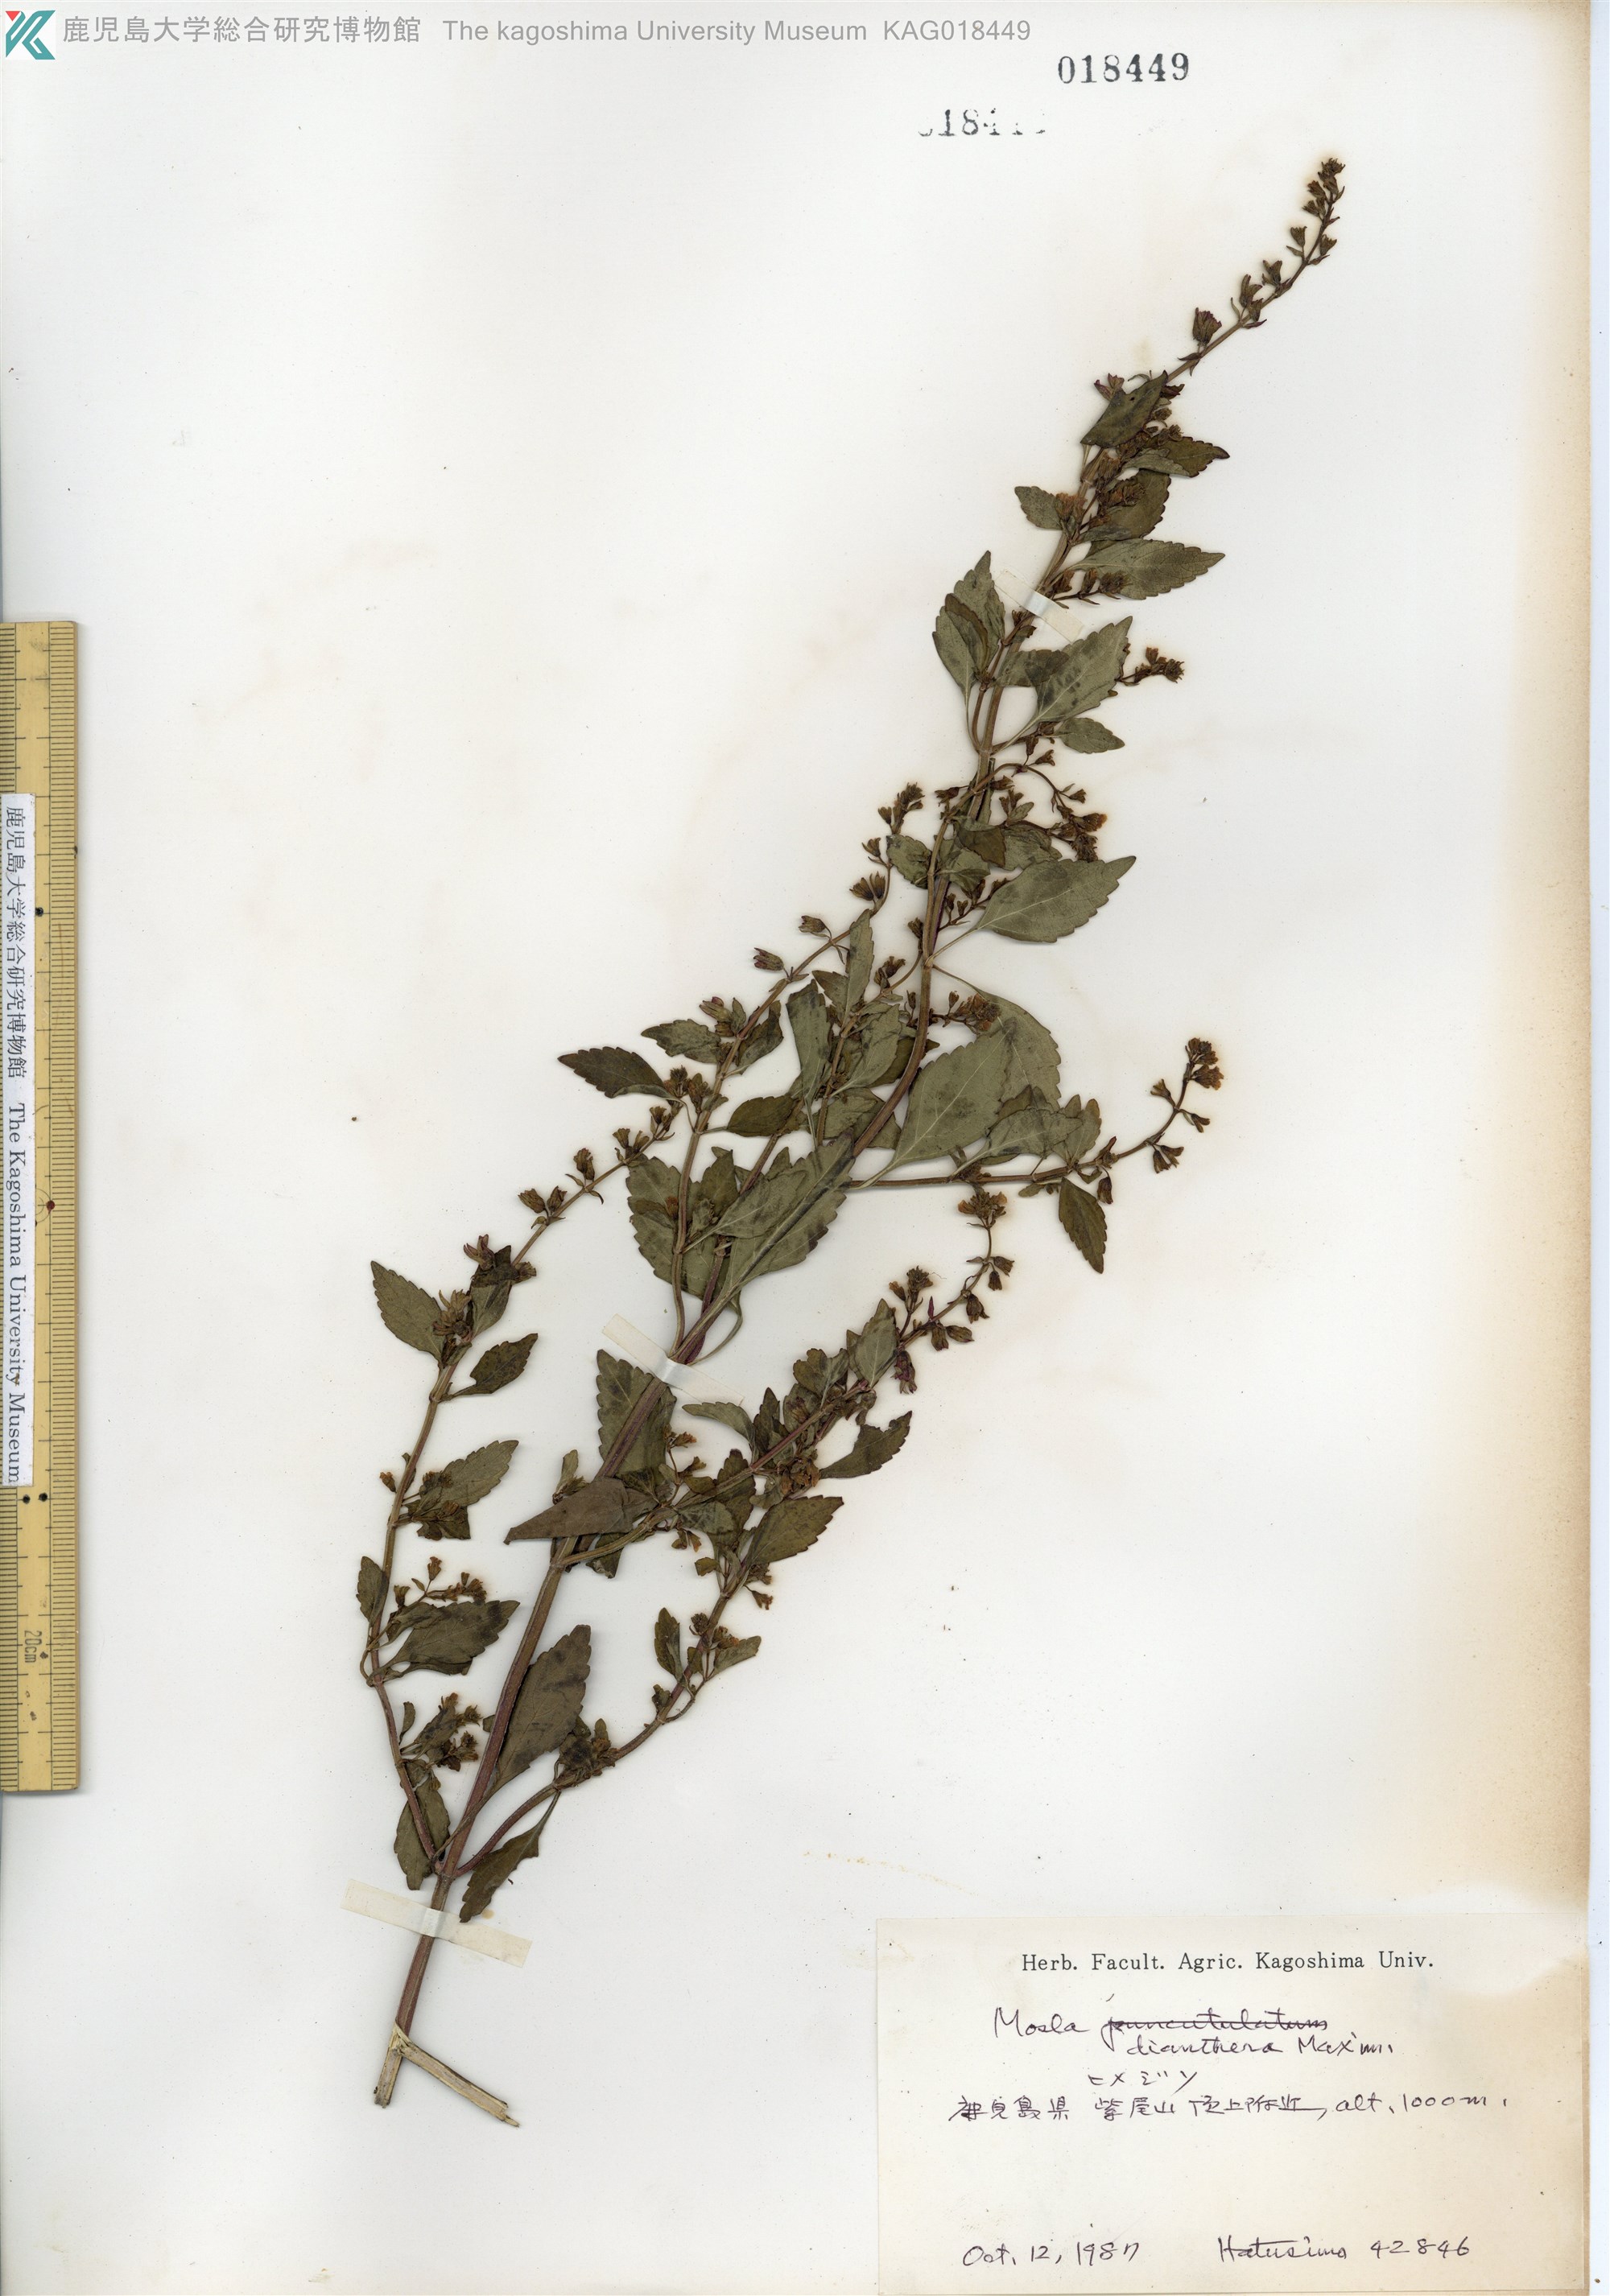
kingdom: Plantae
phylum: Tracheophyta
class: Magnoliopsida
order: Lamiales
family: Lamiaceae
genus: Mosla
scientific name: Mosla dianthera
